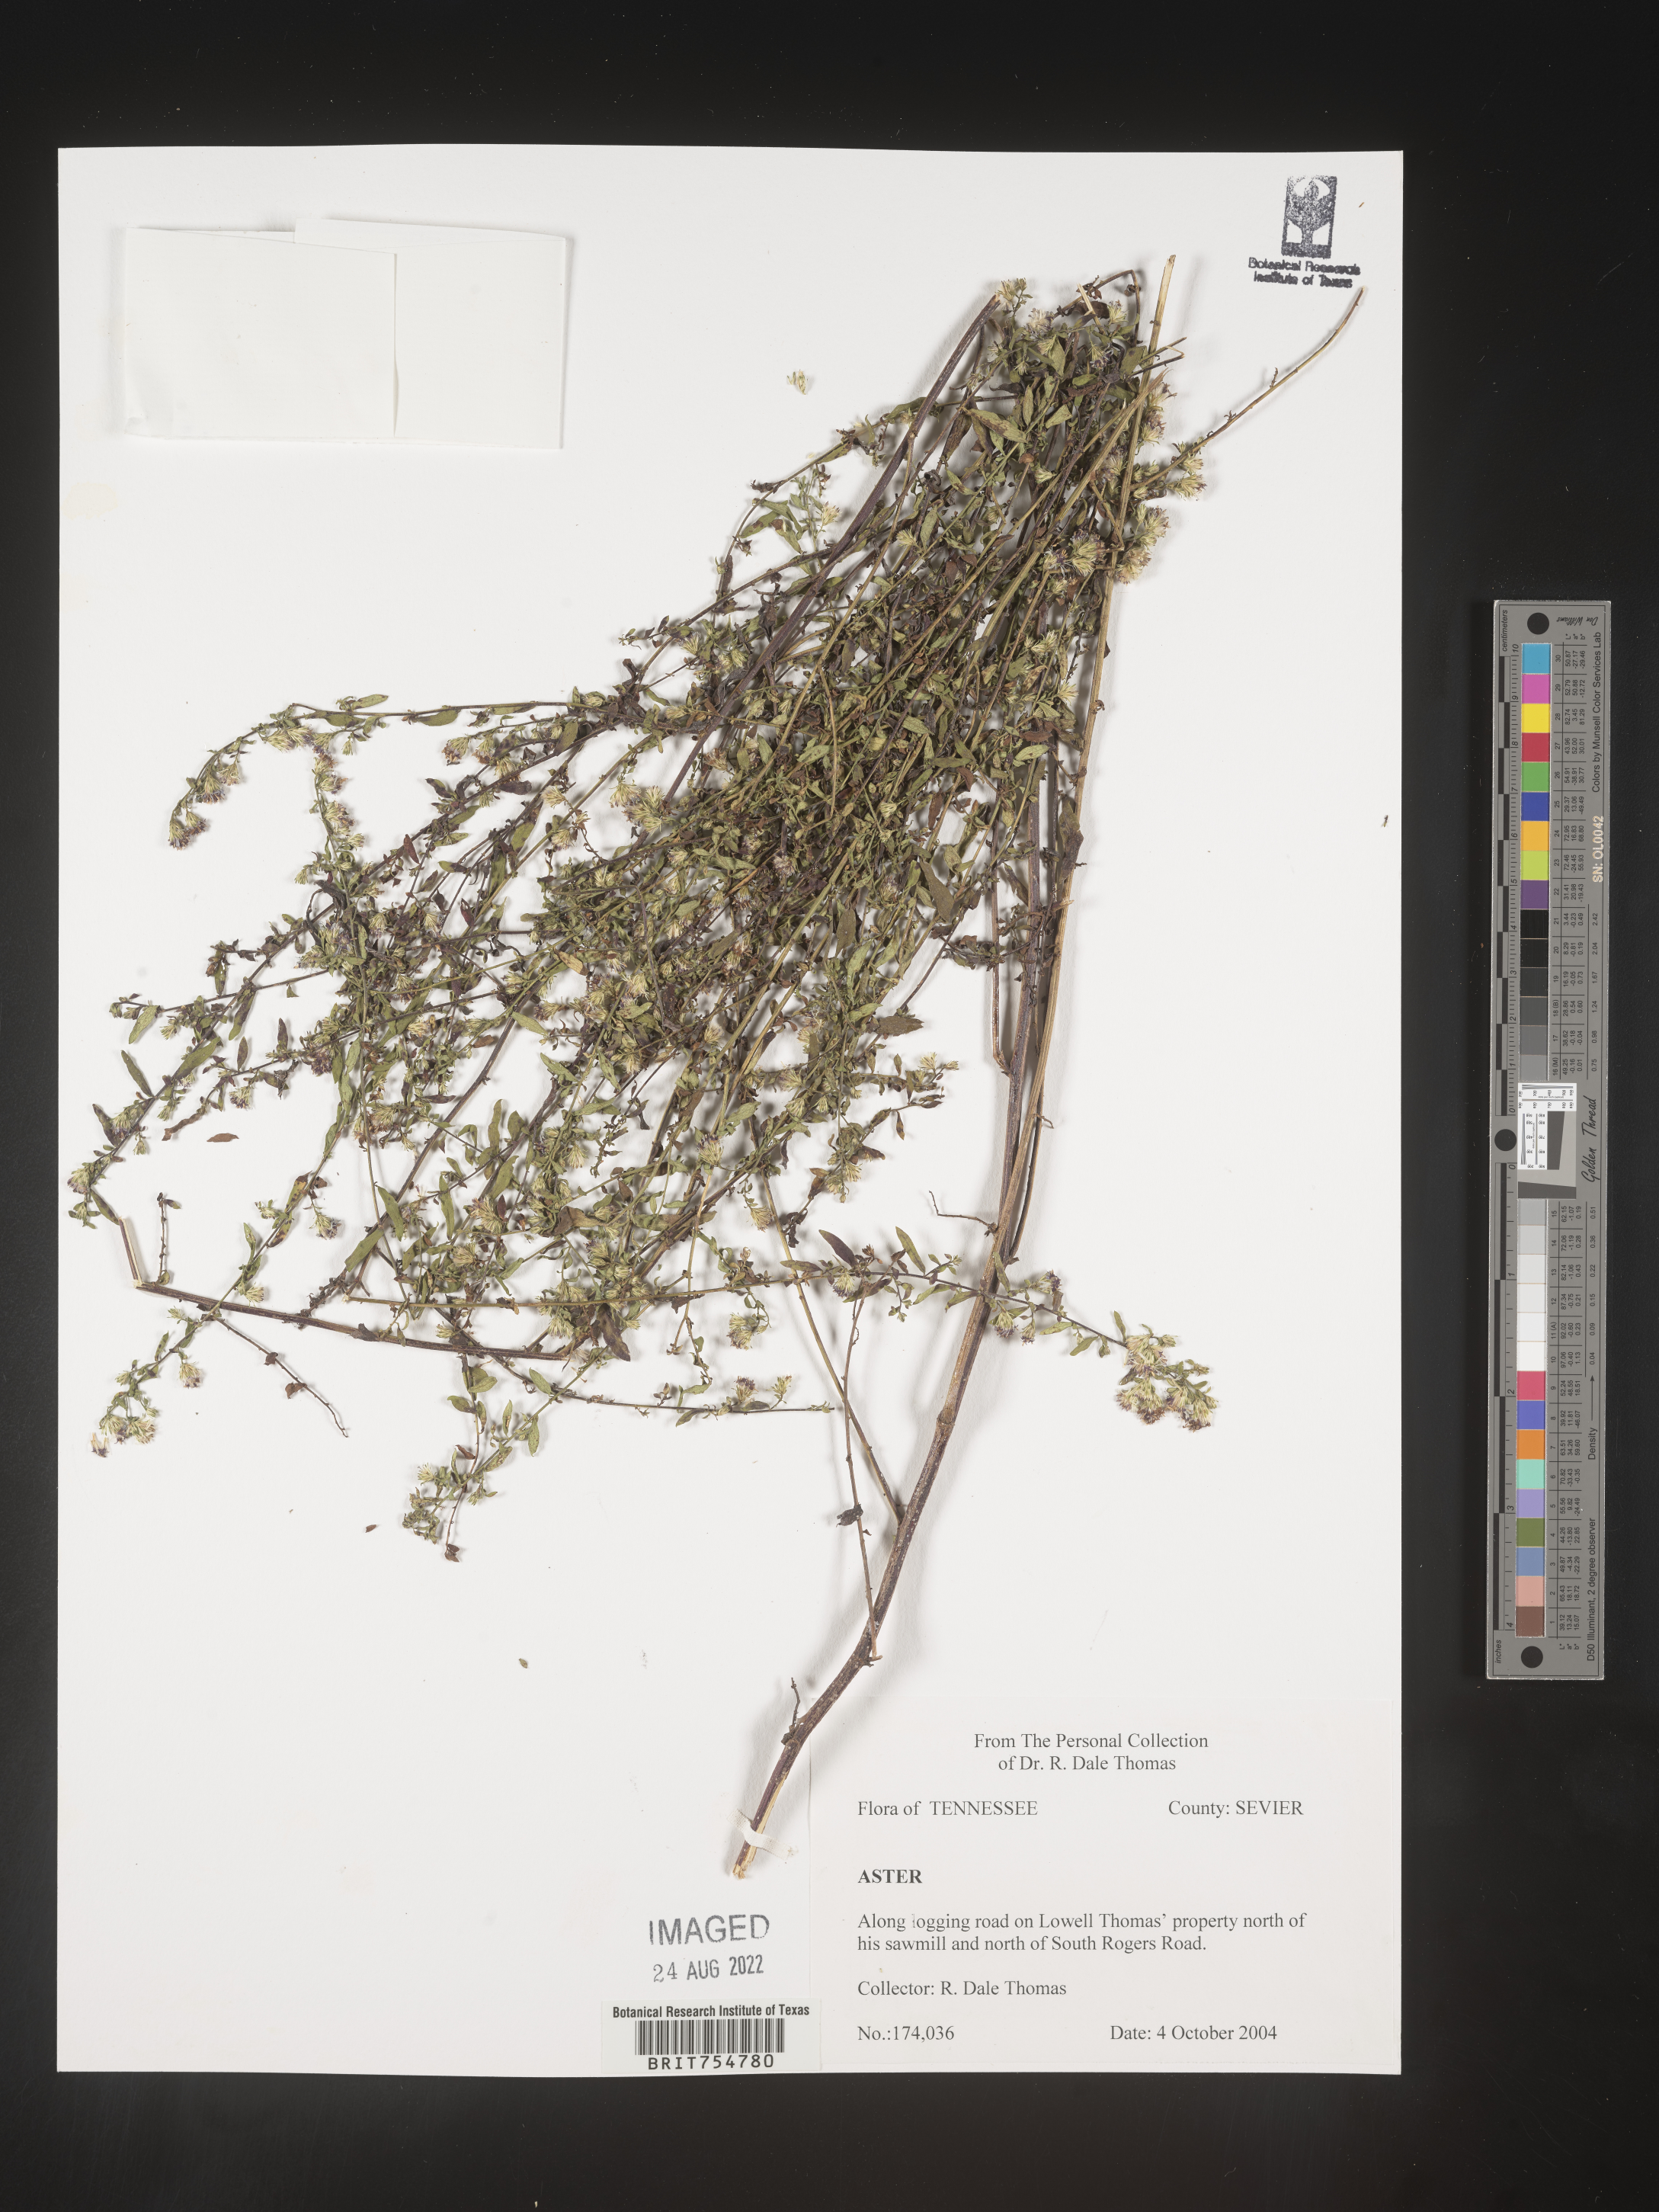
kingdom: Plantae
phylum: Tracheophyta
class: Magnoliopsida
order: Asterales
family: Asteraceae
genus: Symphyotrichum
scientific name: Symphyotrichum
